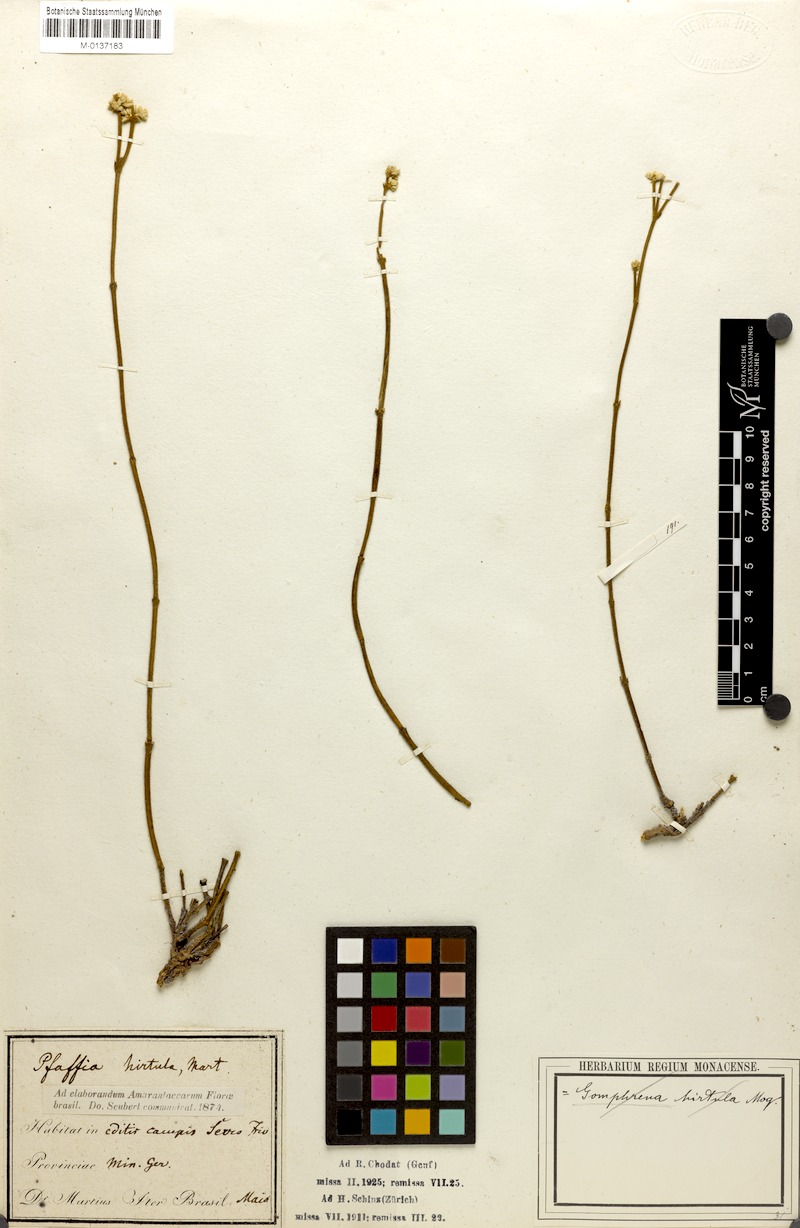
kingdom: Plantae
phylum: Tracheophyta
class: Magnoliopsida
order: Caryophyllales
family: Amaranthaceae
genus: Pfaffia
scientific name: Pfaffia hirtula
